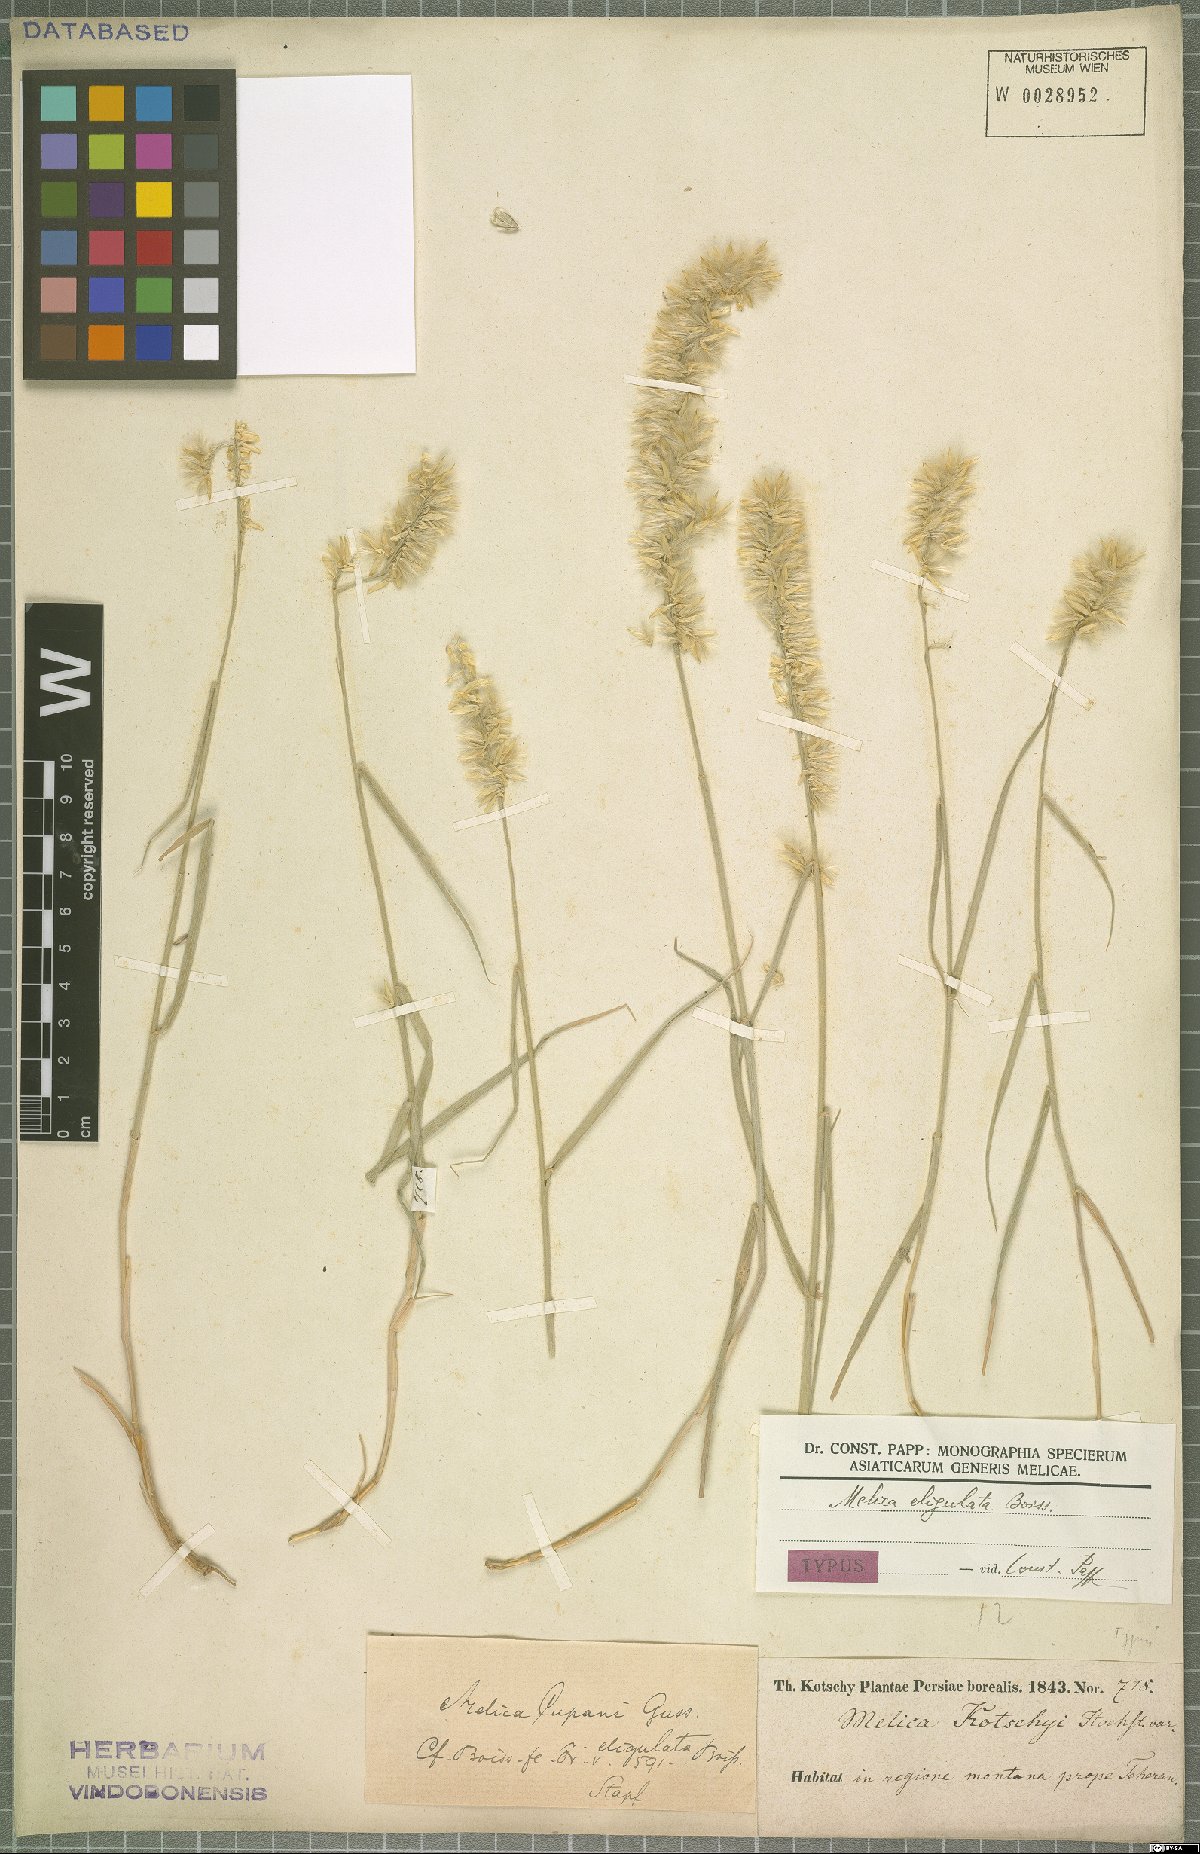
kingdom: Plantae
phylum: Tracheophyta
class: Liliopsida
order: Poales
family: Poaceae
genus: Melica
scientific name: Melica eligulata
